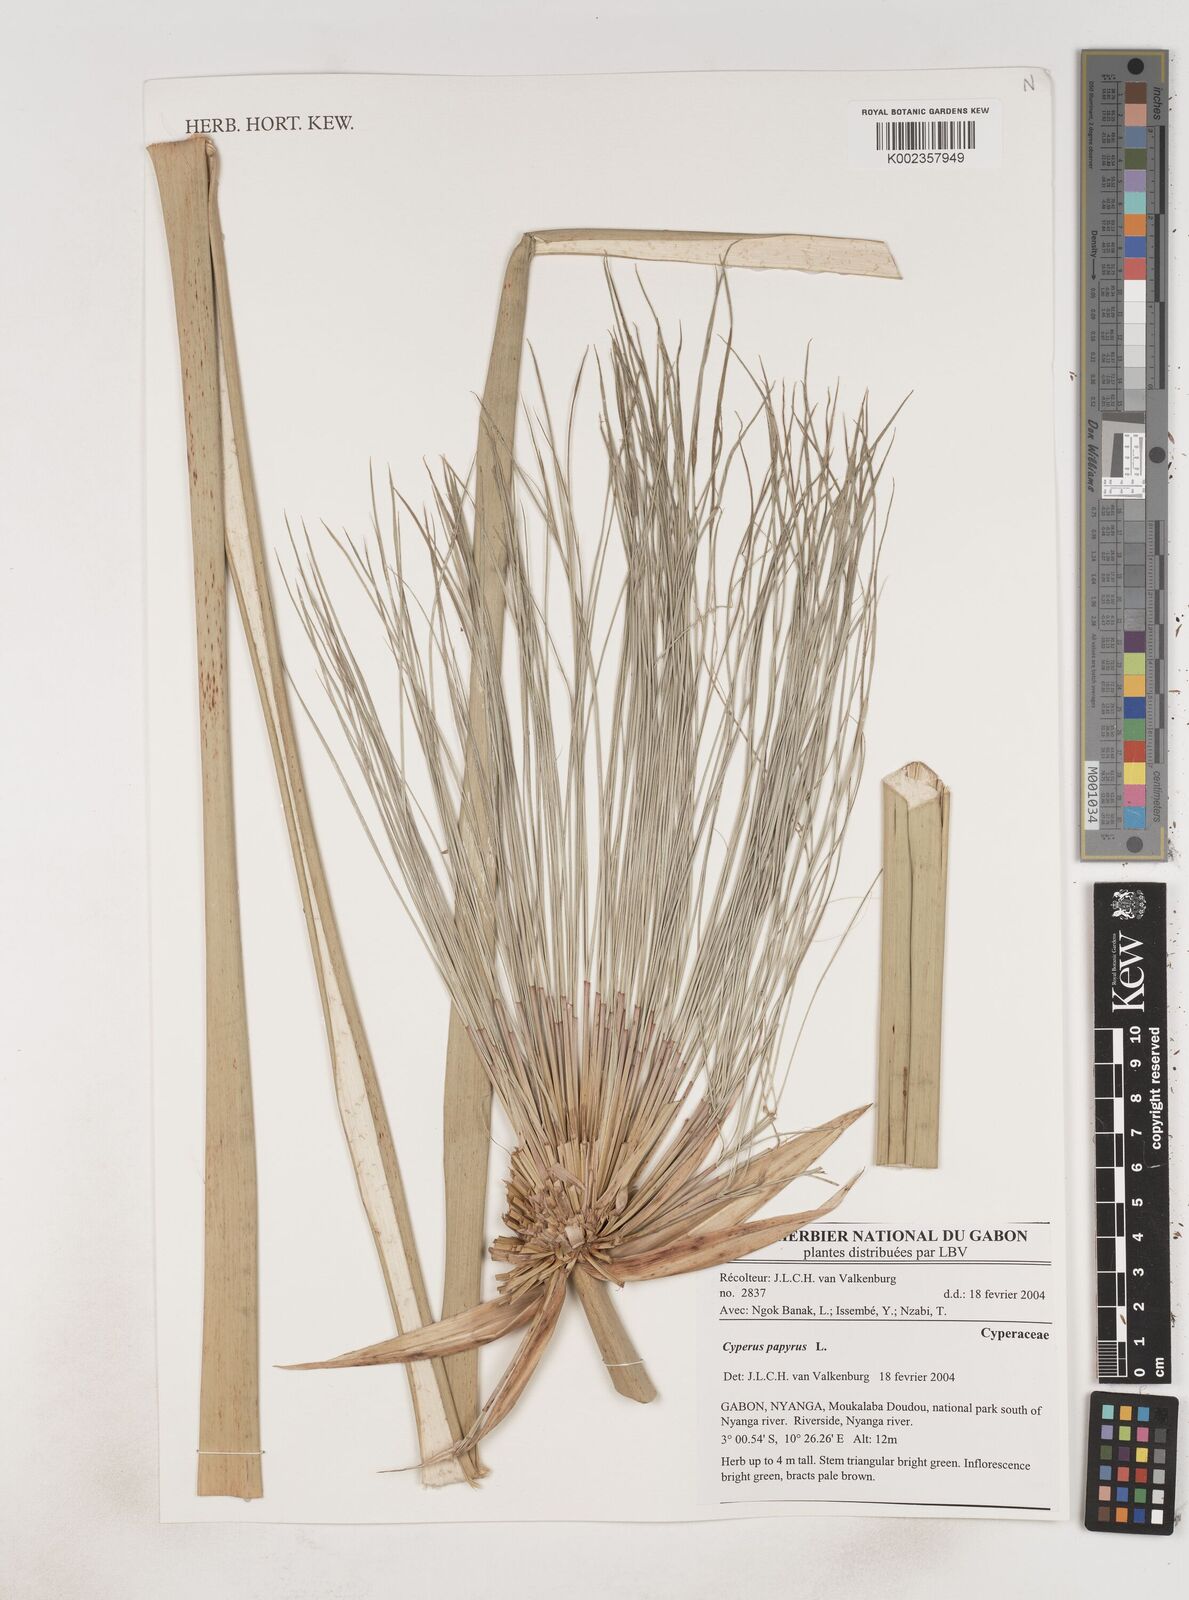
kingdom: Plantae
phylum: Tracheophyta
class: Liliopsida
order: Poales
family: Cyperaceae
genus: Cyperus
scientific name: Cyperus papyrus
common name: Papyrus
